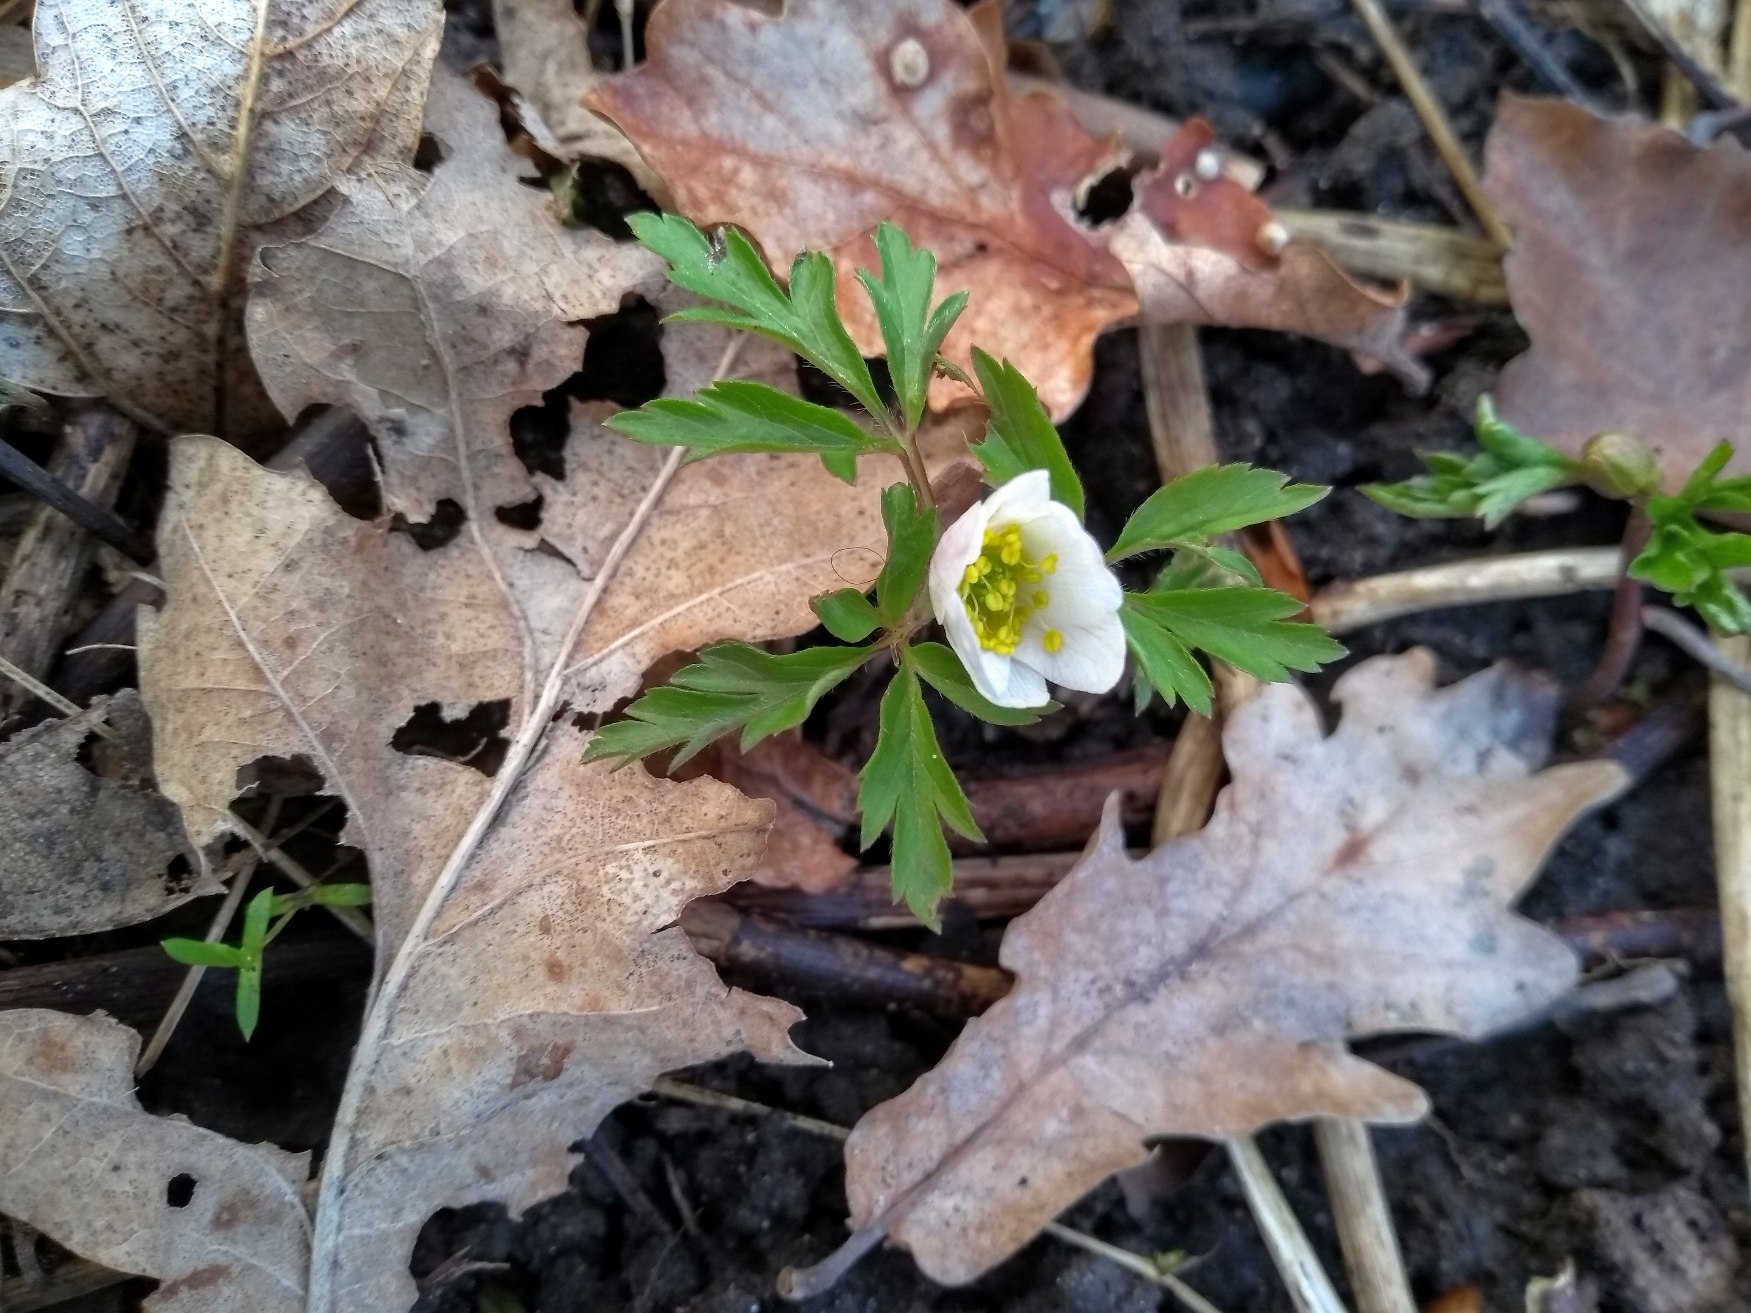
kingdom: Plantae
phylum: Tracheophyta
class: Magnoliopsida
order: Ranunculales
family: Ranunculaceae
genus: Anemone
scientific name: Anemone nemorosa
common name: Hvid anemone
